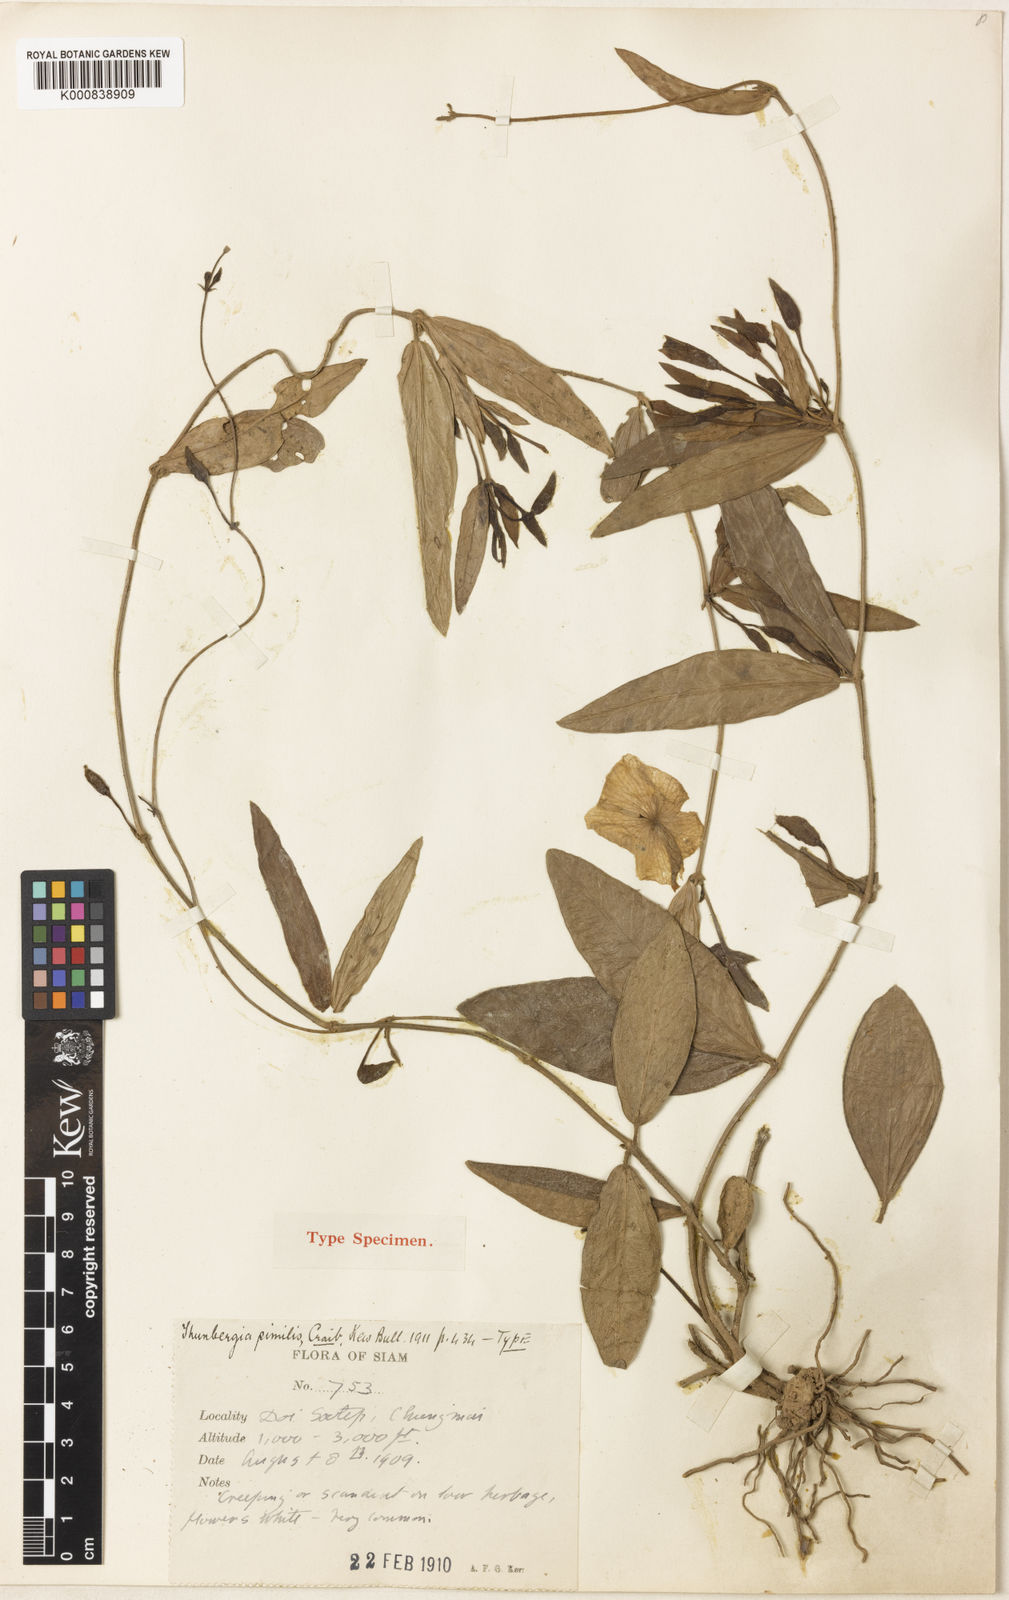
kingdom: Plantae
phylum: Tracheophyta
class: Magnoliopsida
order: Lamiales
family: Acanthaceae
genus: Thunbergia
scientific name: Thunbergia fragrans
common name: Whitelady
